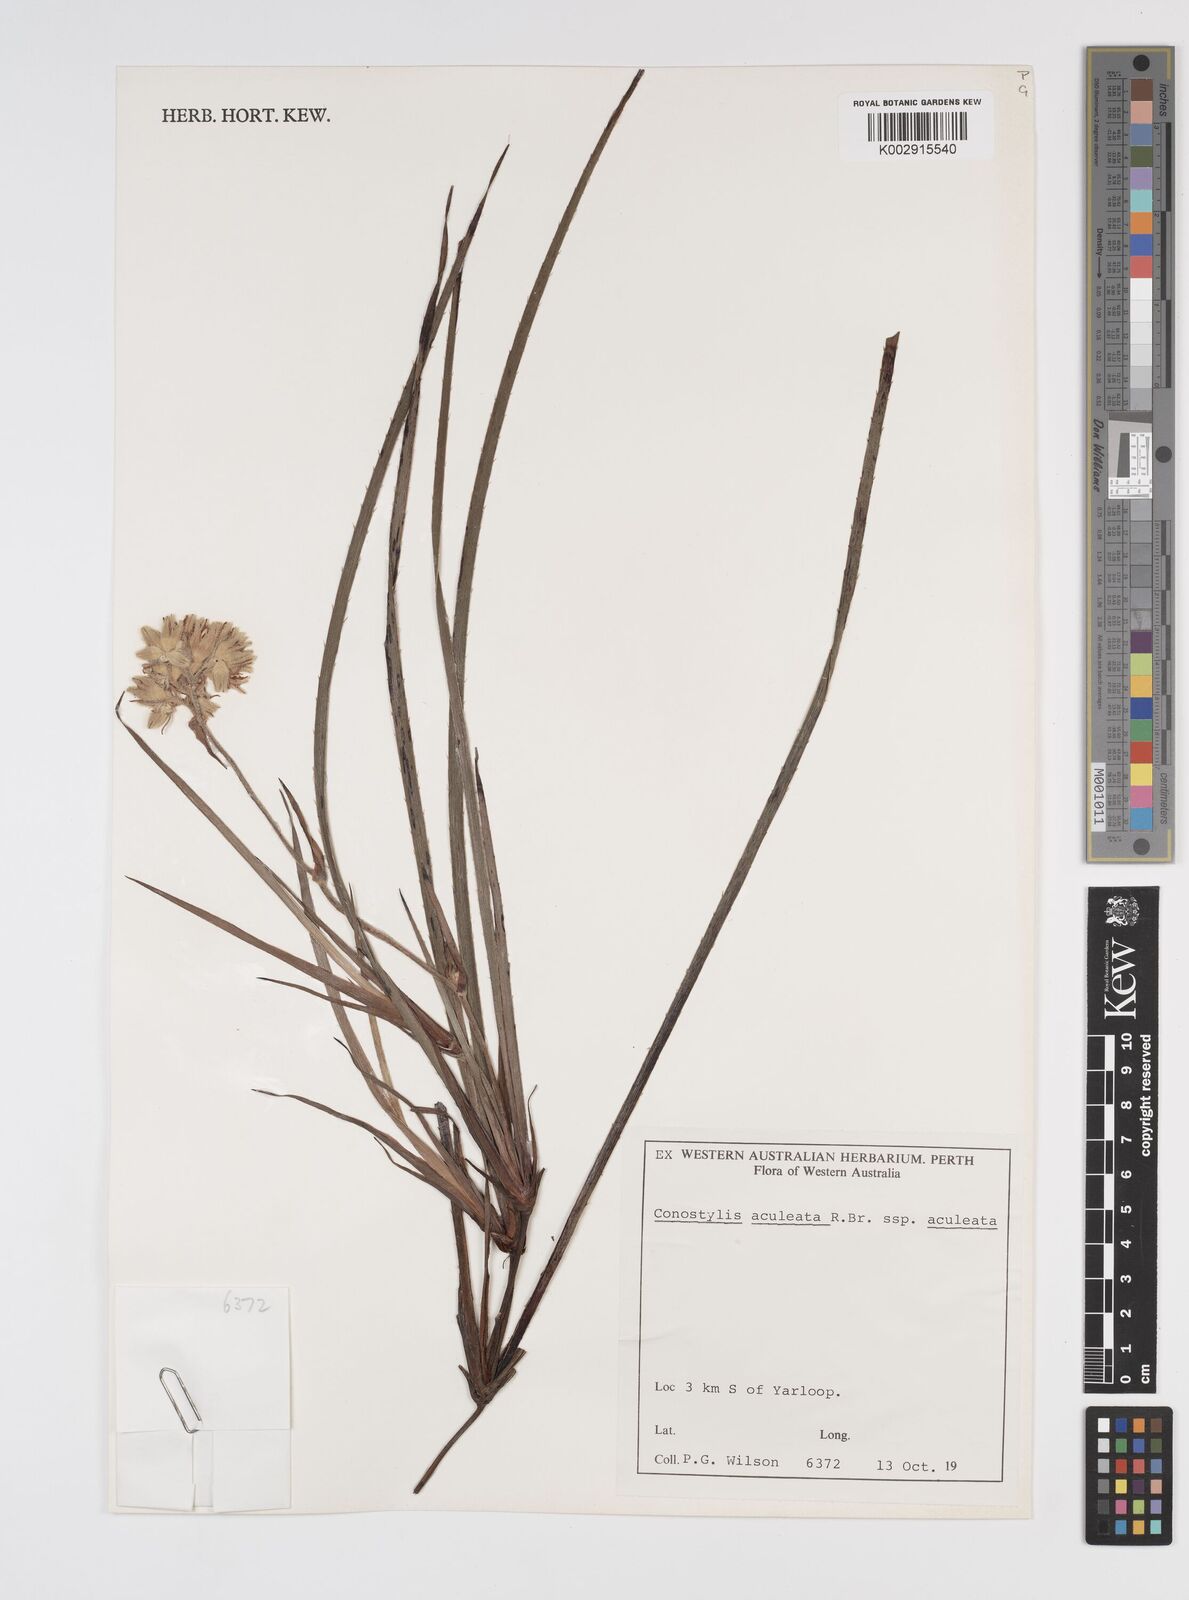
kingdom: Plantae
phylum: Tracheophyta
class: Liliopsida
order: Commelinales
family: Haemodoraceae
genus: Conostylis
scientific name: Conostylis aculeata
